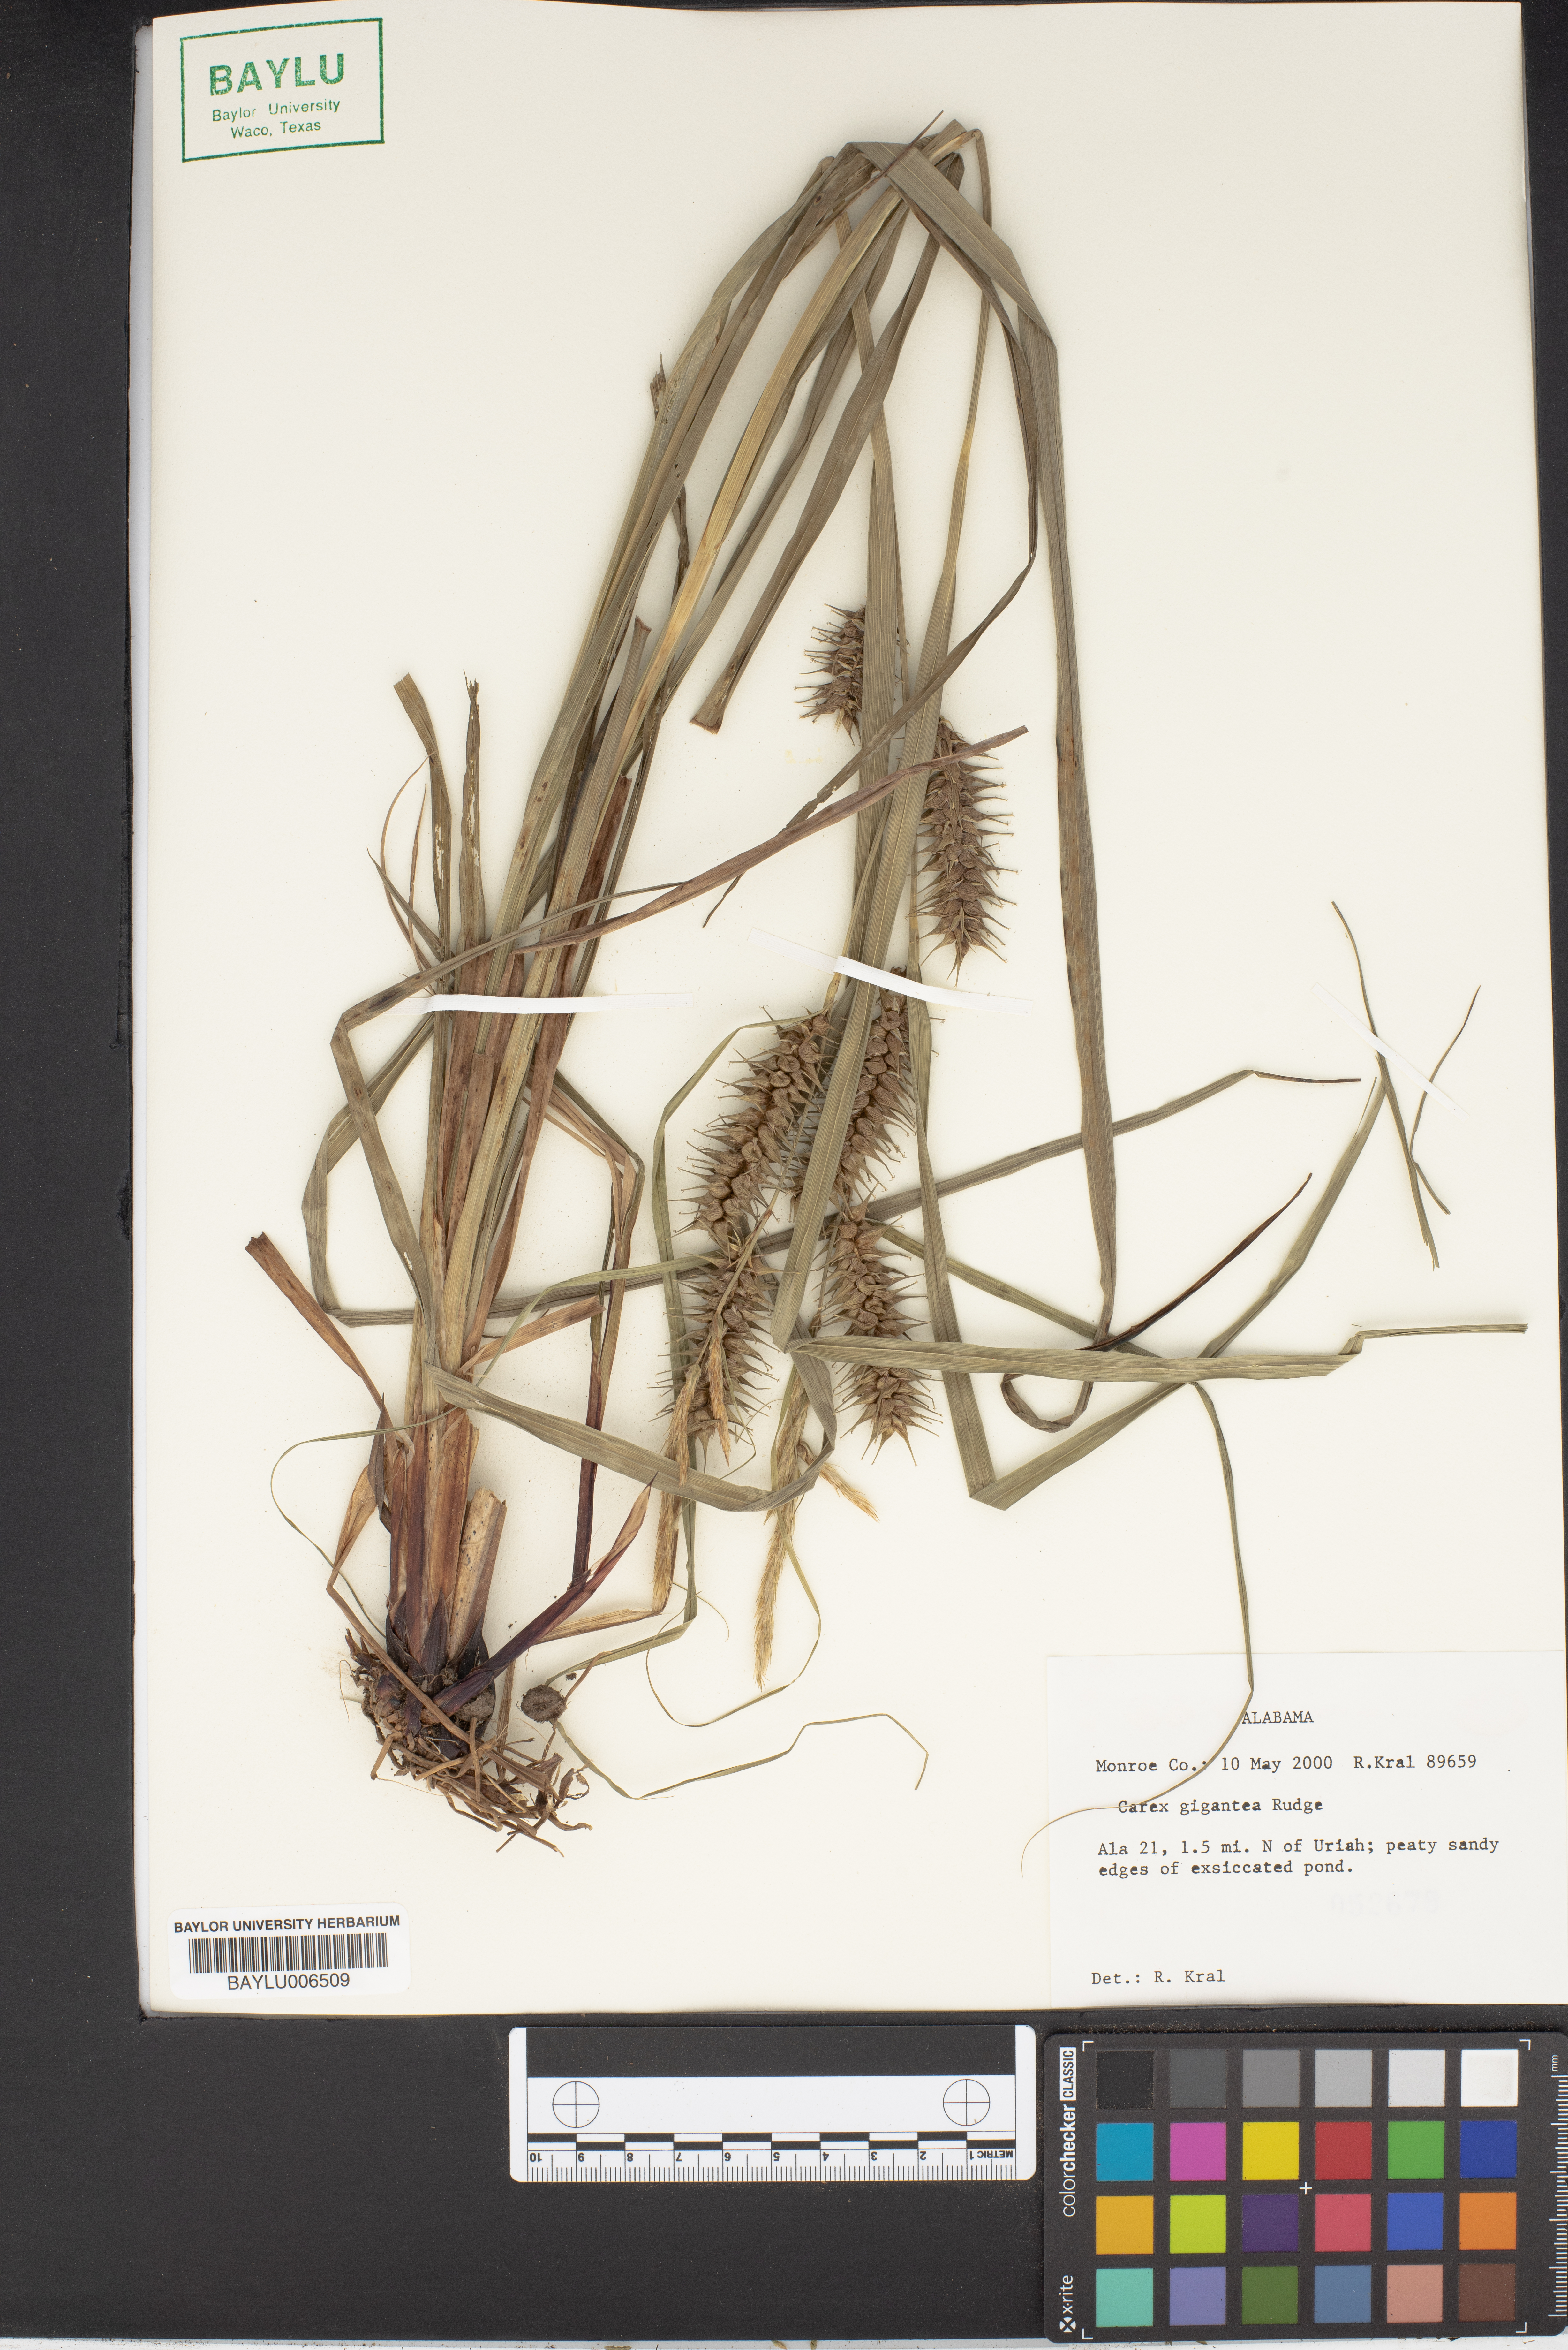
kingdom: Plantae
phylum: Tracheophyta
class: Liliopsida
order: Poales
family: Cyperaceae
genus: Carex
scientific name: Carex gigantea
